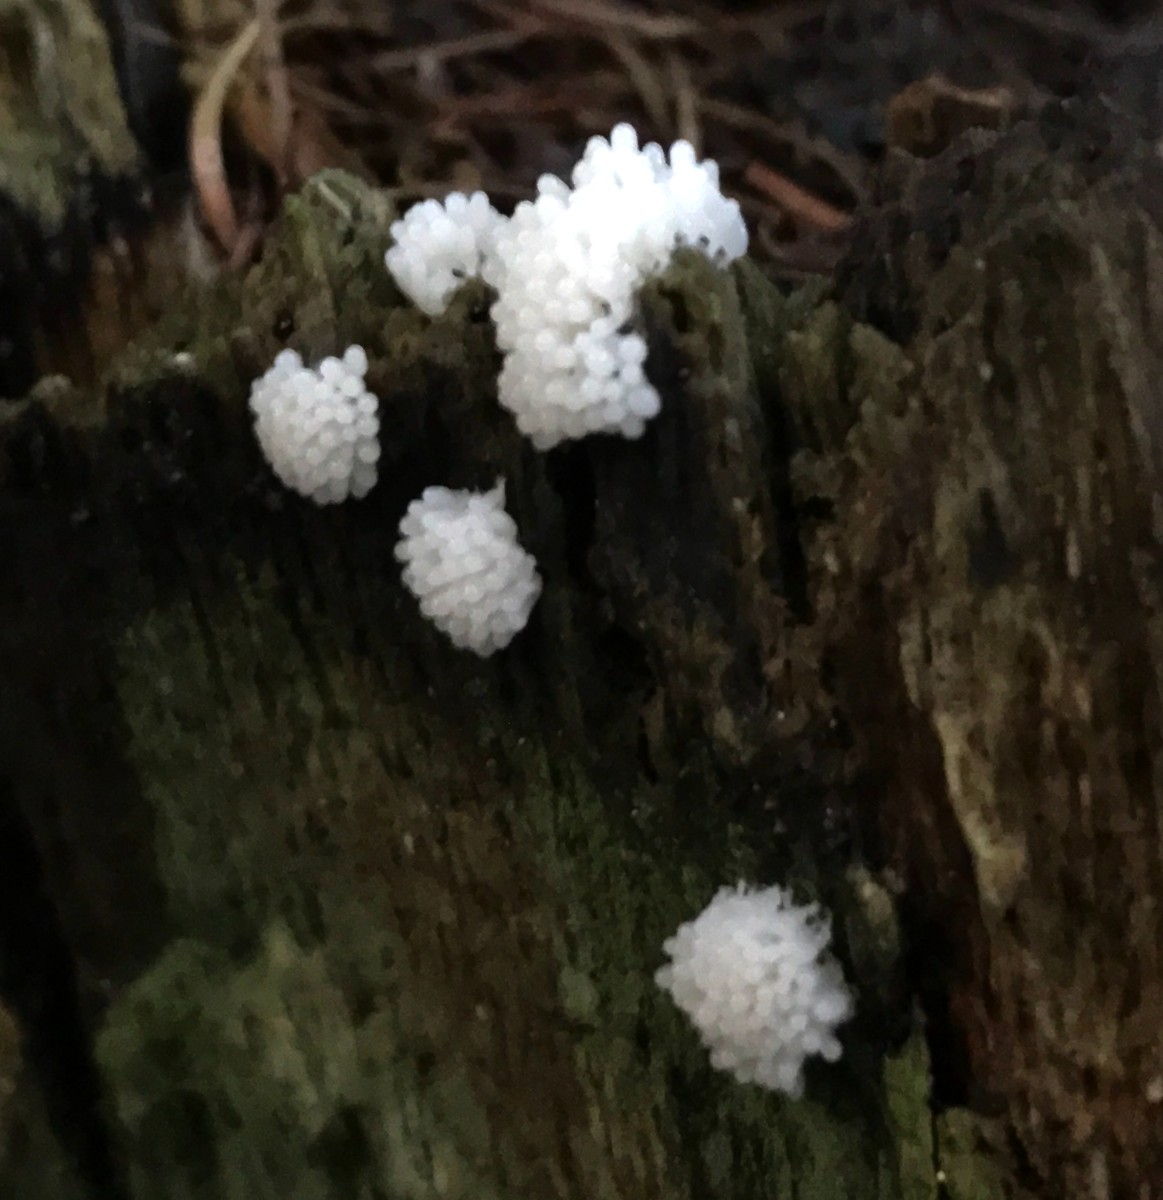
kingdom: Protozoa
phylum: Mycetozoa
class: Myxomycetes
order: Cribrariales
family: Tubiferaceae
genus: Reticularia
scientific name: Reticularia lycoperdon
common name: skinnende støvpude
